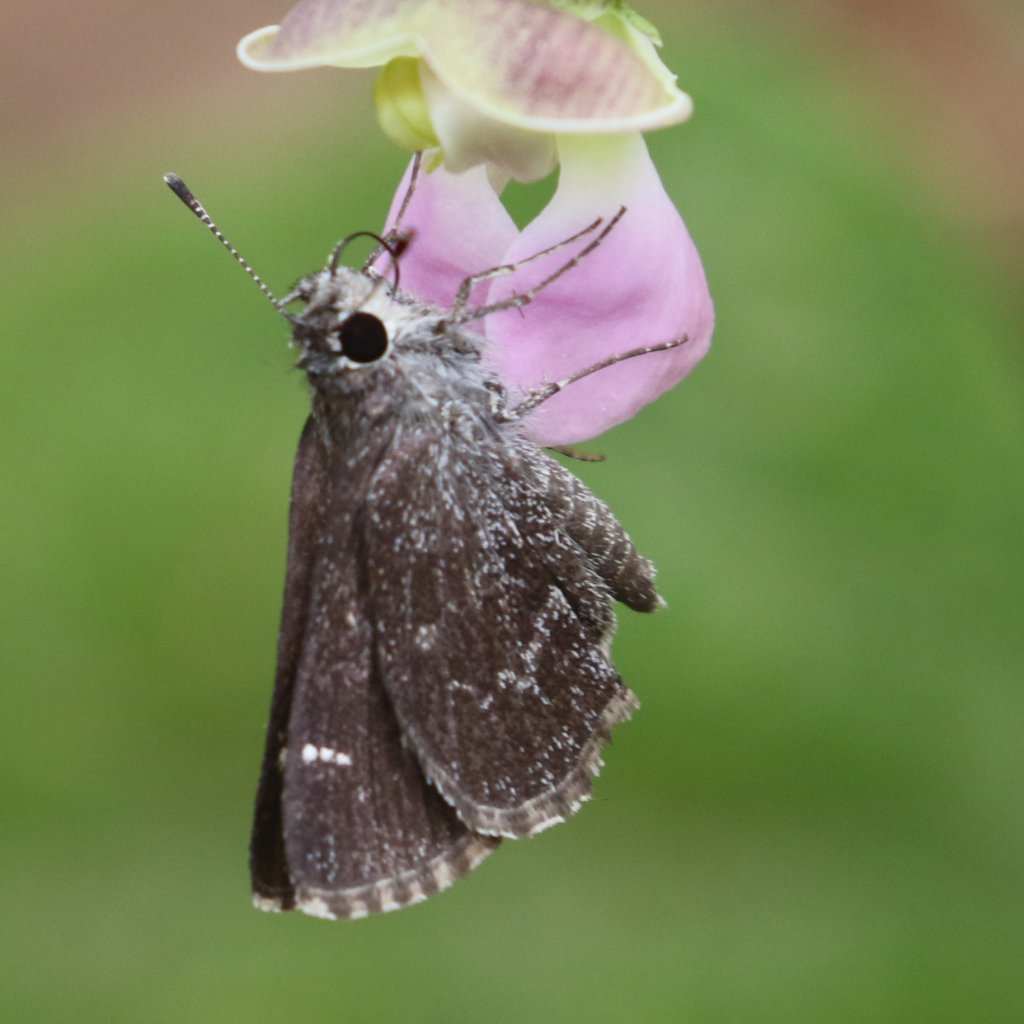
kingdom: Animalia
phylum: Arthropoda
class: Insecta
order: Lepidoptera
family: Hesperiidae
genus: Mastor
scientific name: Mastor alternata
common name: Dusky Roadside-Skipper
